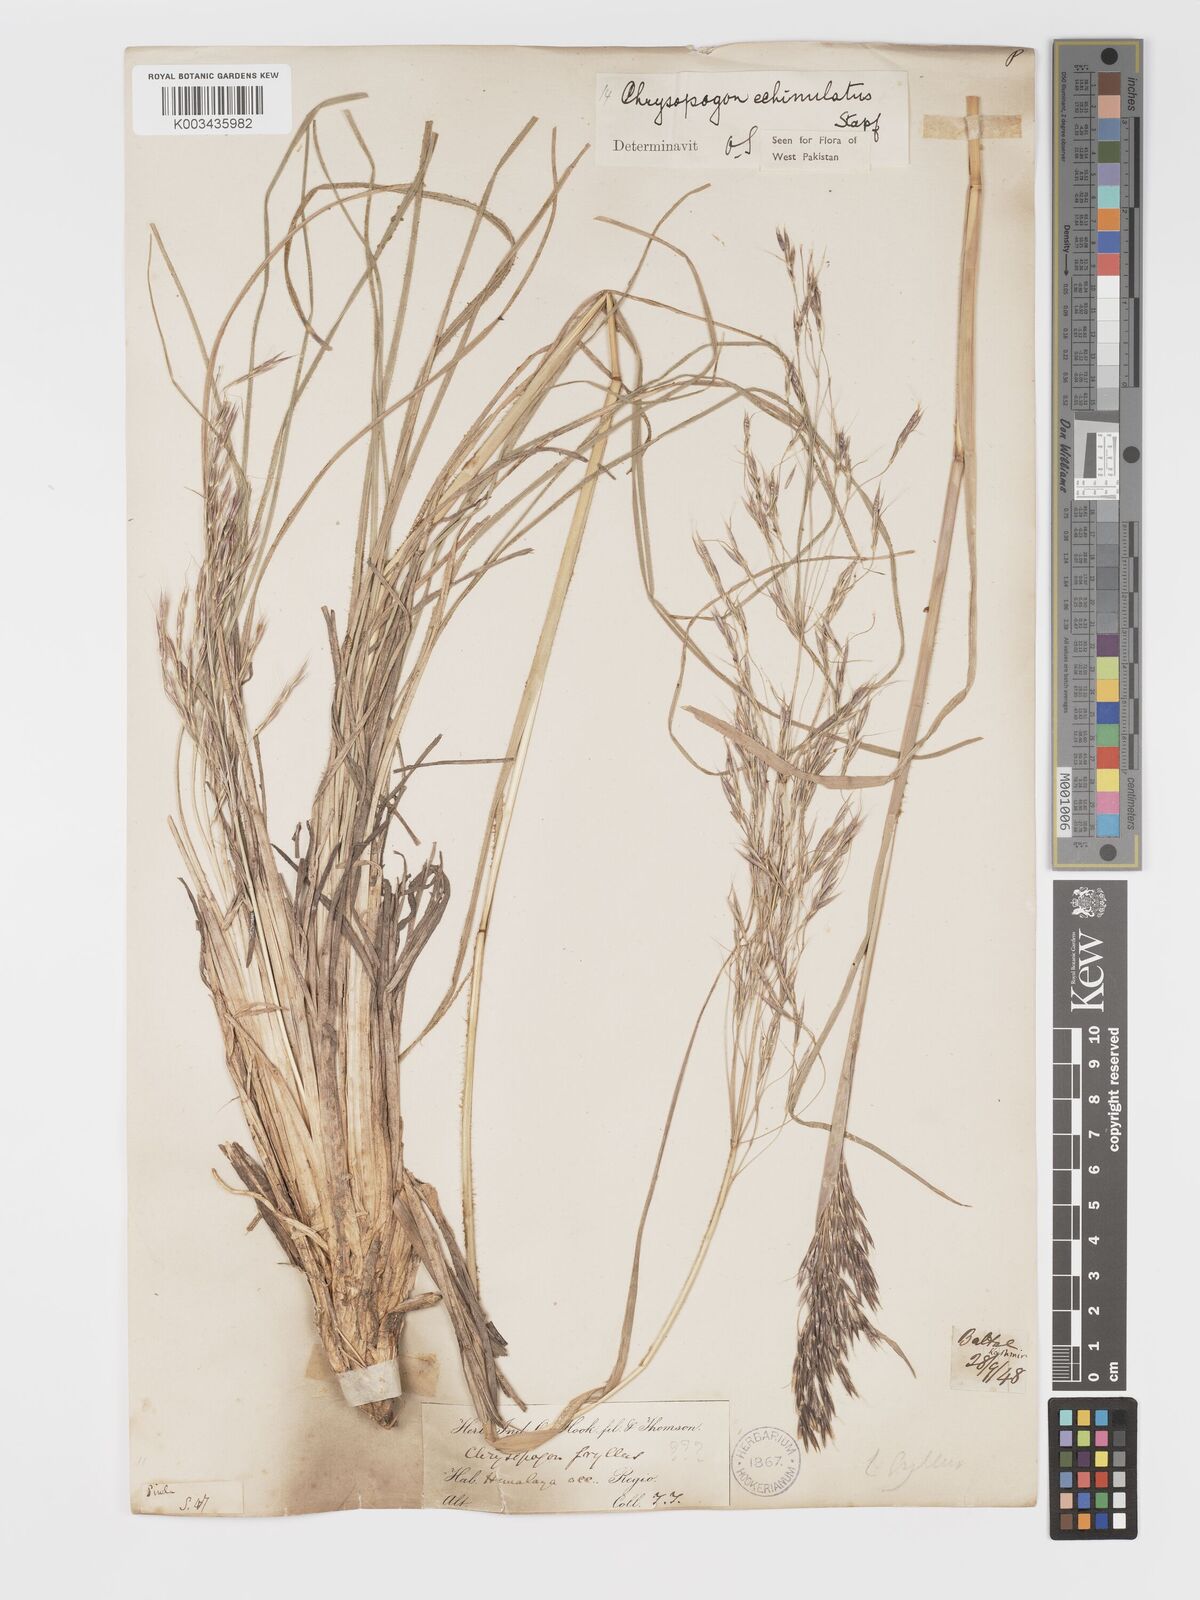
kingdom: Plantae
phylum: Tracheophyta
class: Liliopsida
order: Poales
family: Poaceae
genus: Chrysopogon
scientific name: Chrysopogon gryllus
